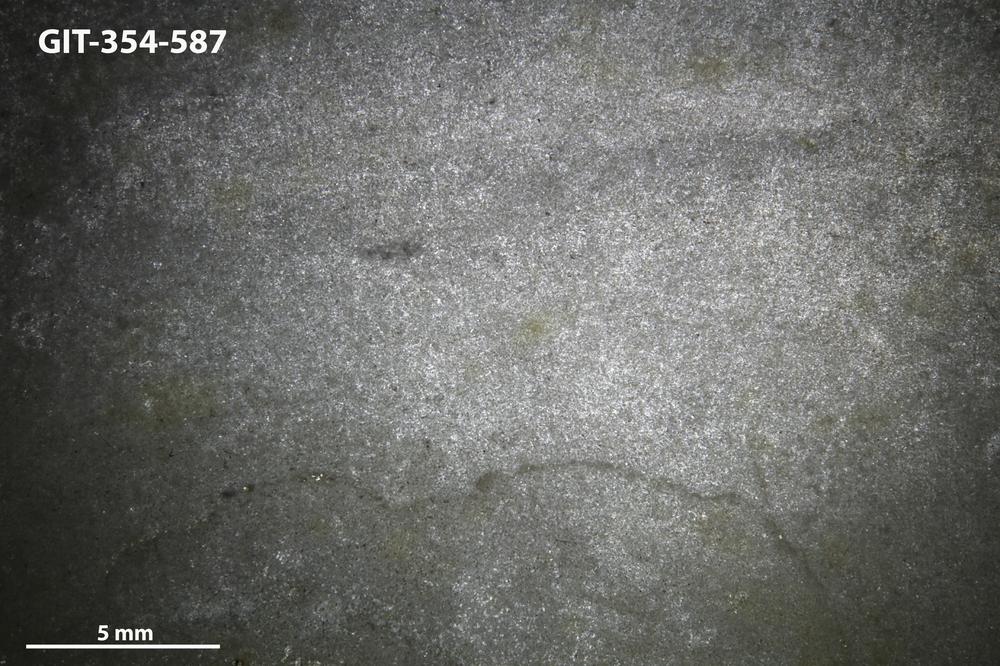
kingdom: Animalia
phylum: Porifera
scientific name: Porifera
